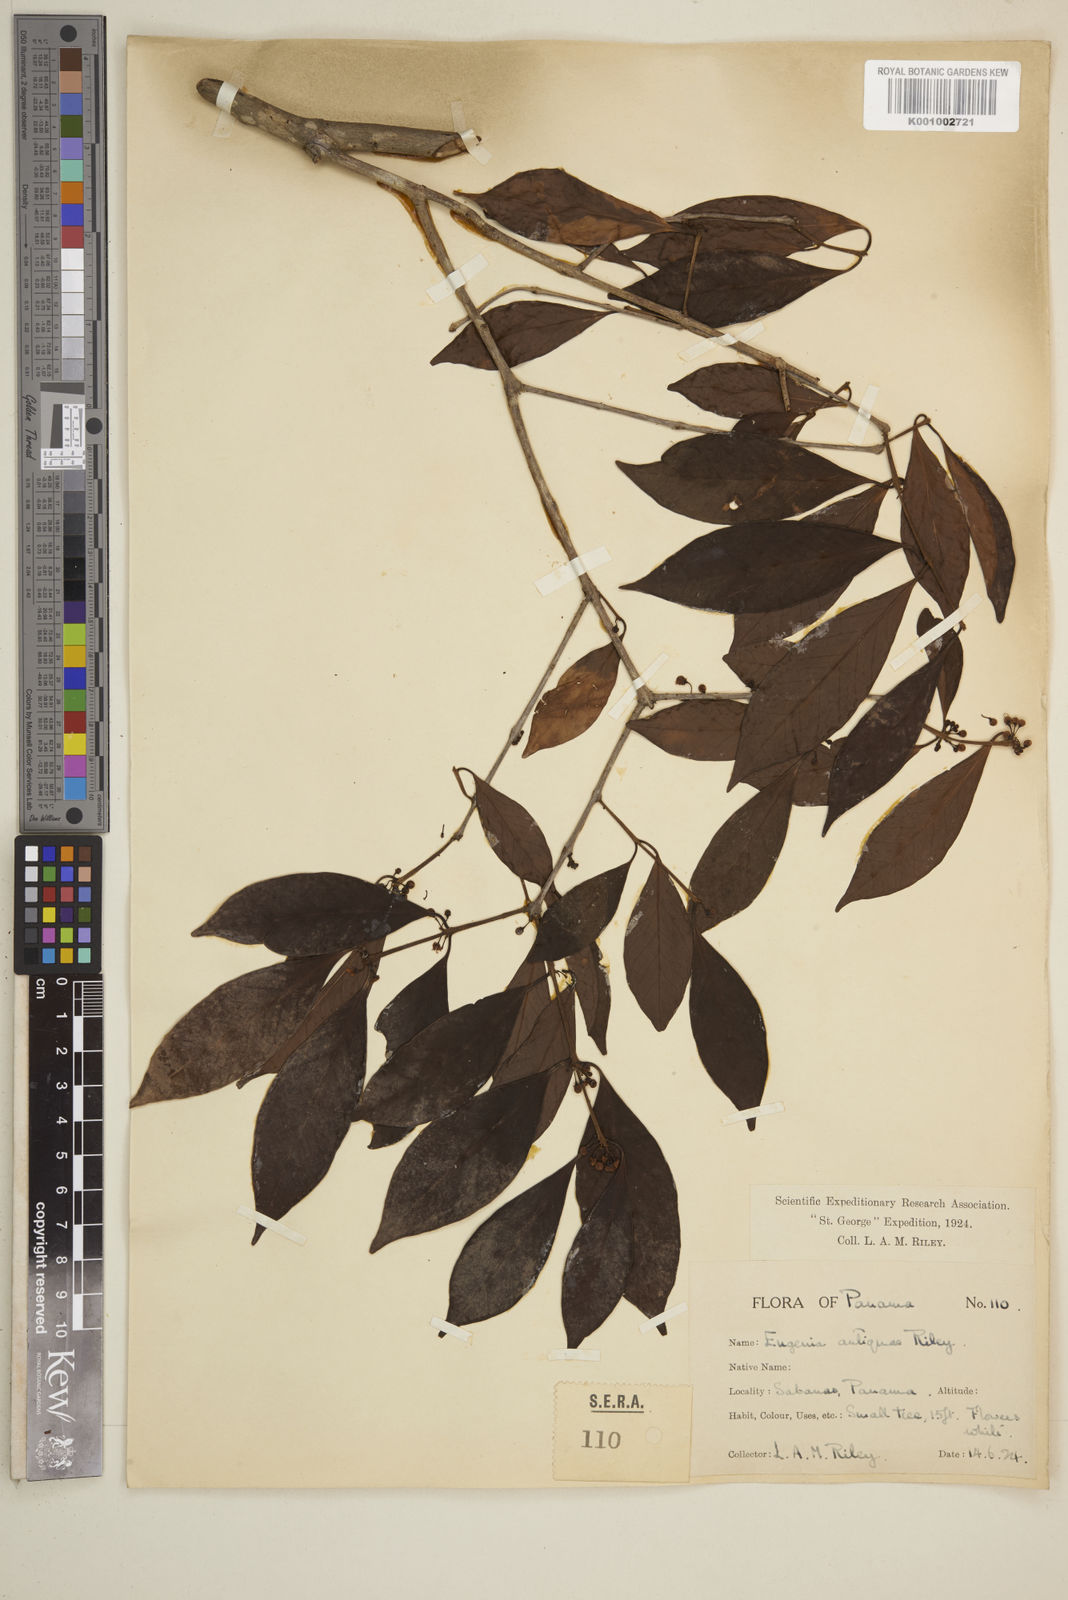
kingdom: Plantae
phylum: Tracheophyta
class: Magnoliopsida
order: Myrtales
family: Myrtaceae
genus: Eugenia
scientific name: Eugenia acapulcensis
